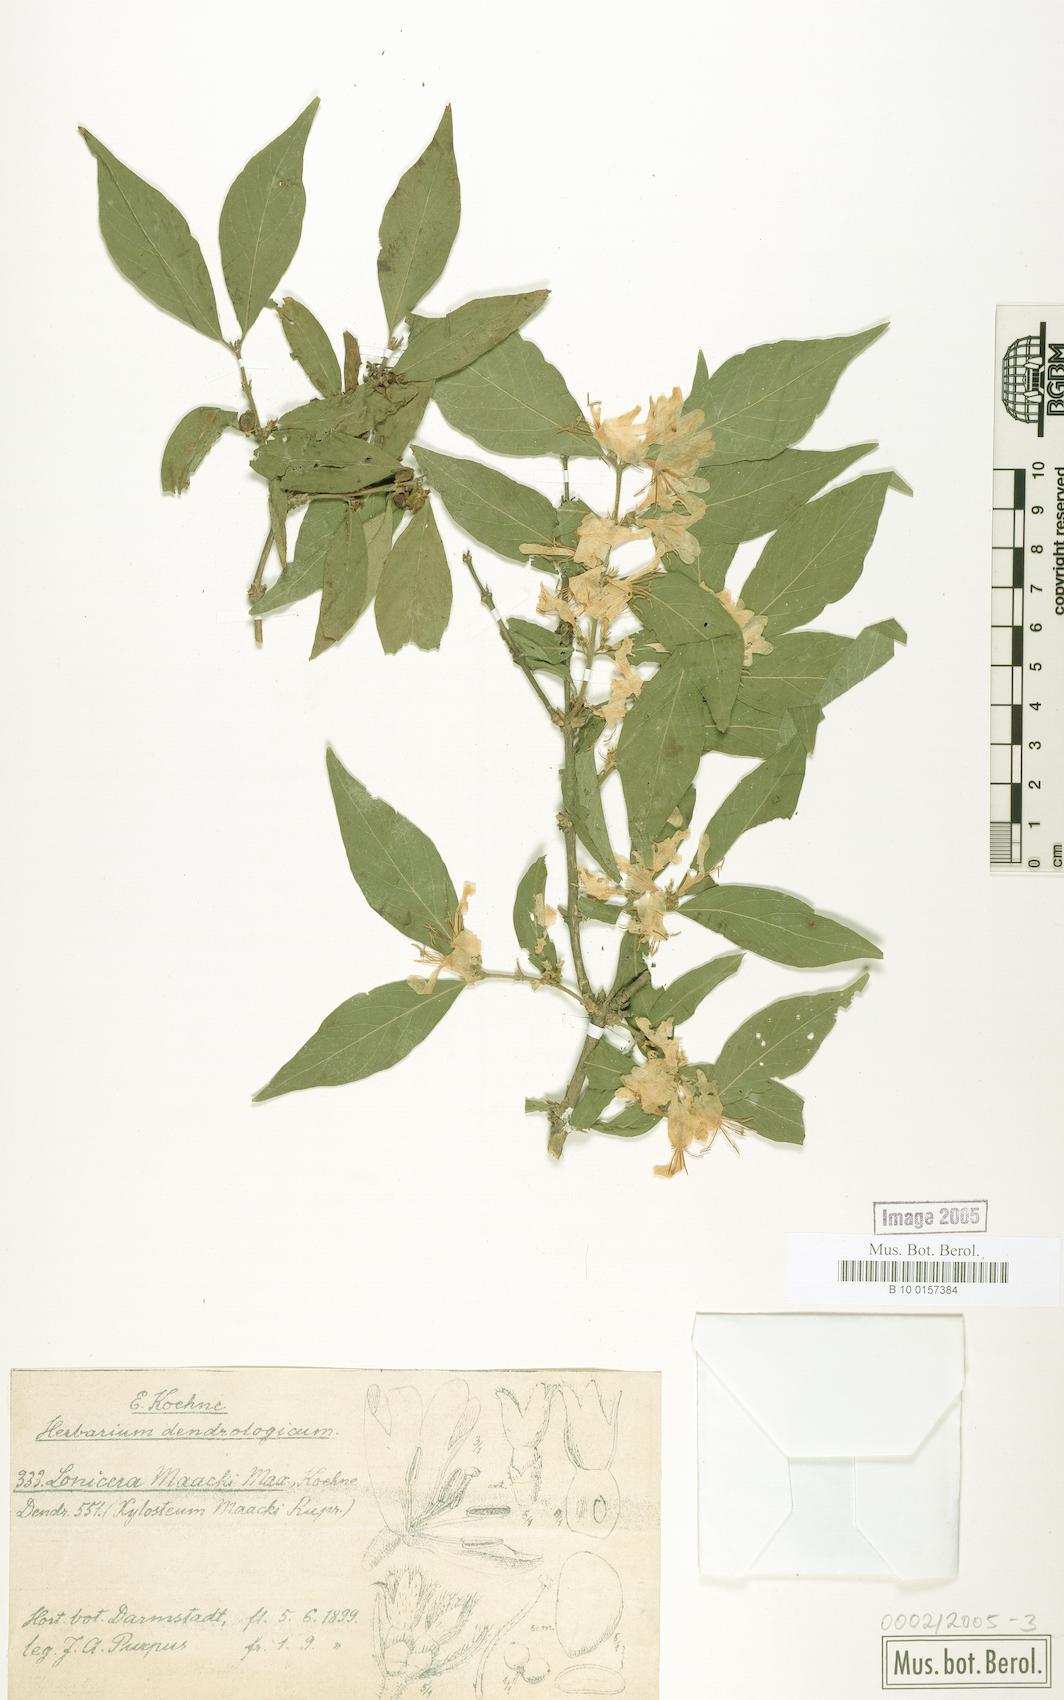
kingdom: Plantae
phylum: Tracheophyta
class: Magnoliopsida
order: Dipsacales
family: Caprifoliaceae
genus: Lonicera
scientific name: Lonicera maackii
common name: Amur honeysuckle
